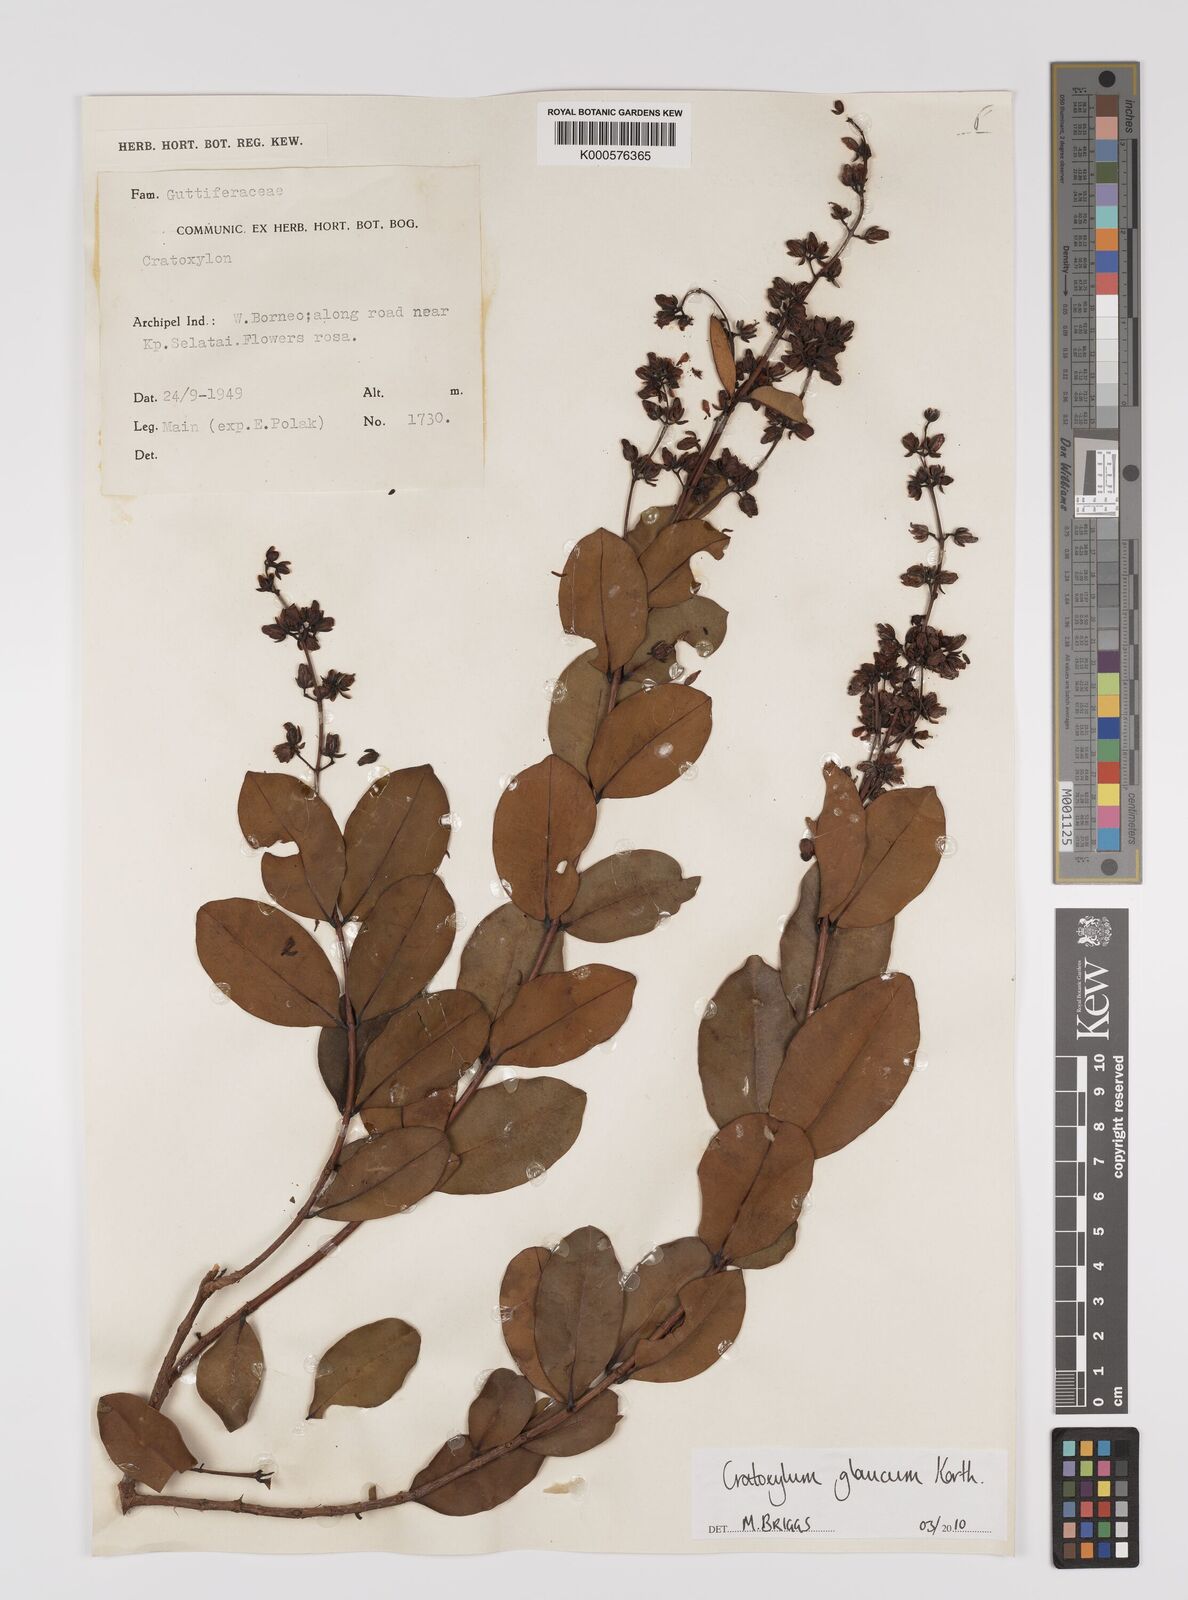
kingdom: Plantae
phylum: Tracheophyta
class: Magnoliopsida
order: Malpighiales
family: Hypericaceae
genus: Cratoxylum
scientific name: Cratoxylum glaucum
